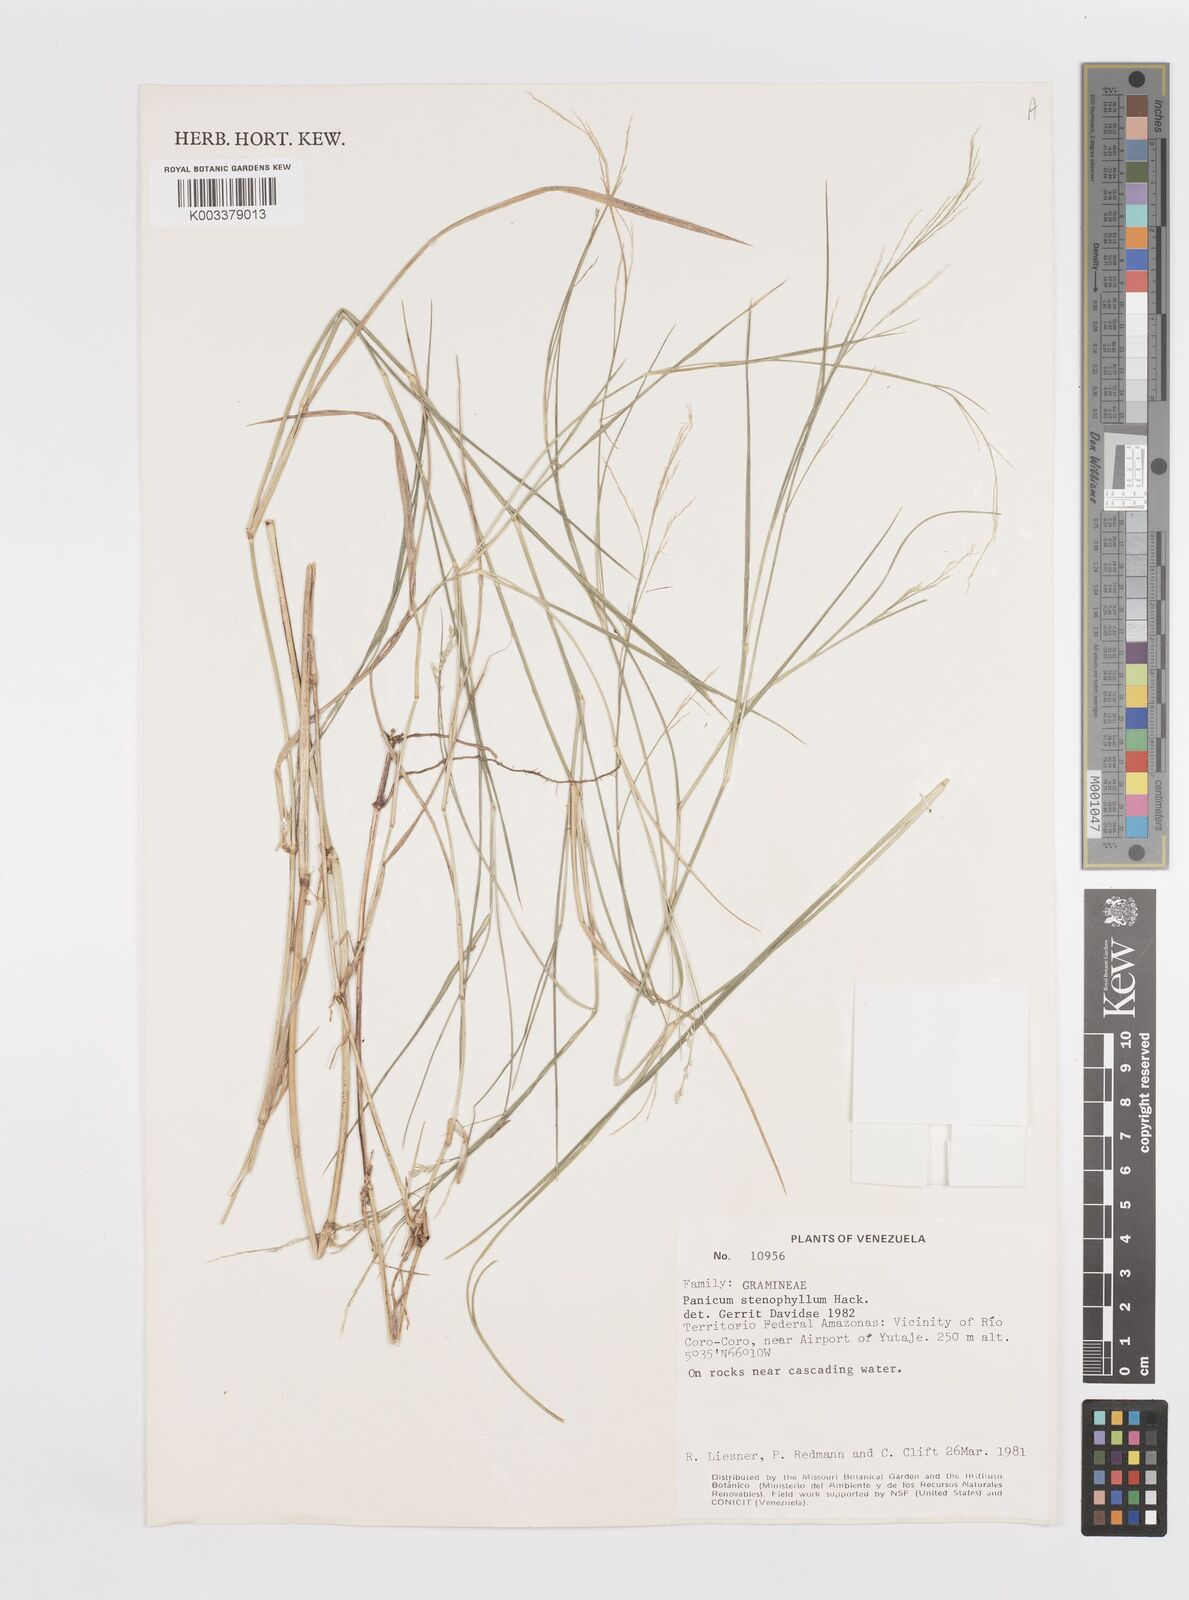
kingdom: Plantae
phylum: Tracheophyta
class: Liliopsida
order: Poales
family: Poaceae
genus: Steinchisma
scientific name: Steinchisma stenophyllum
